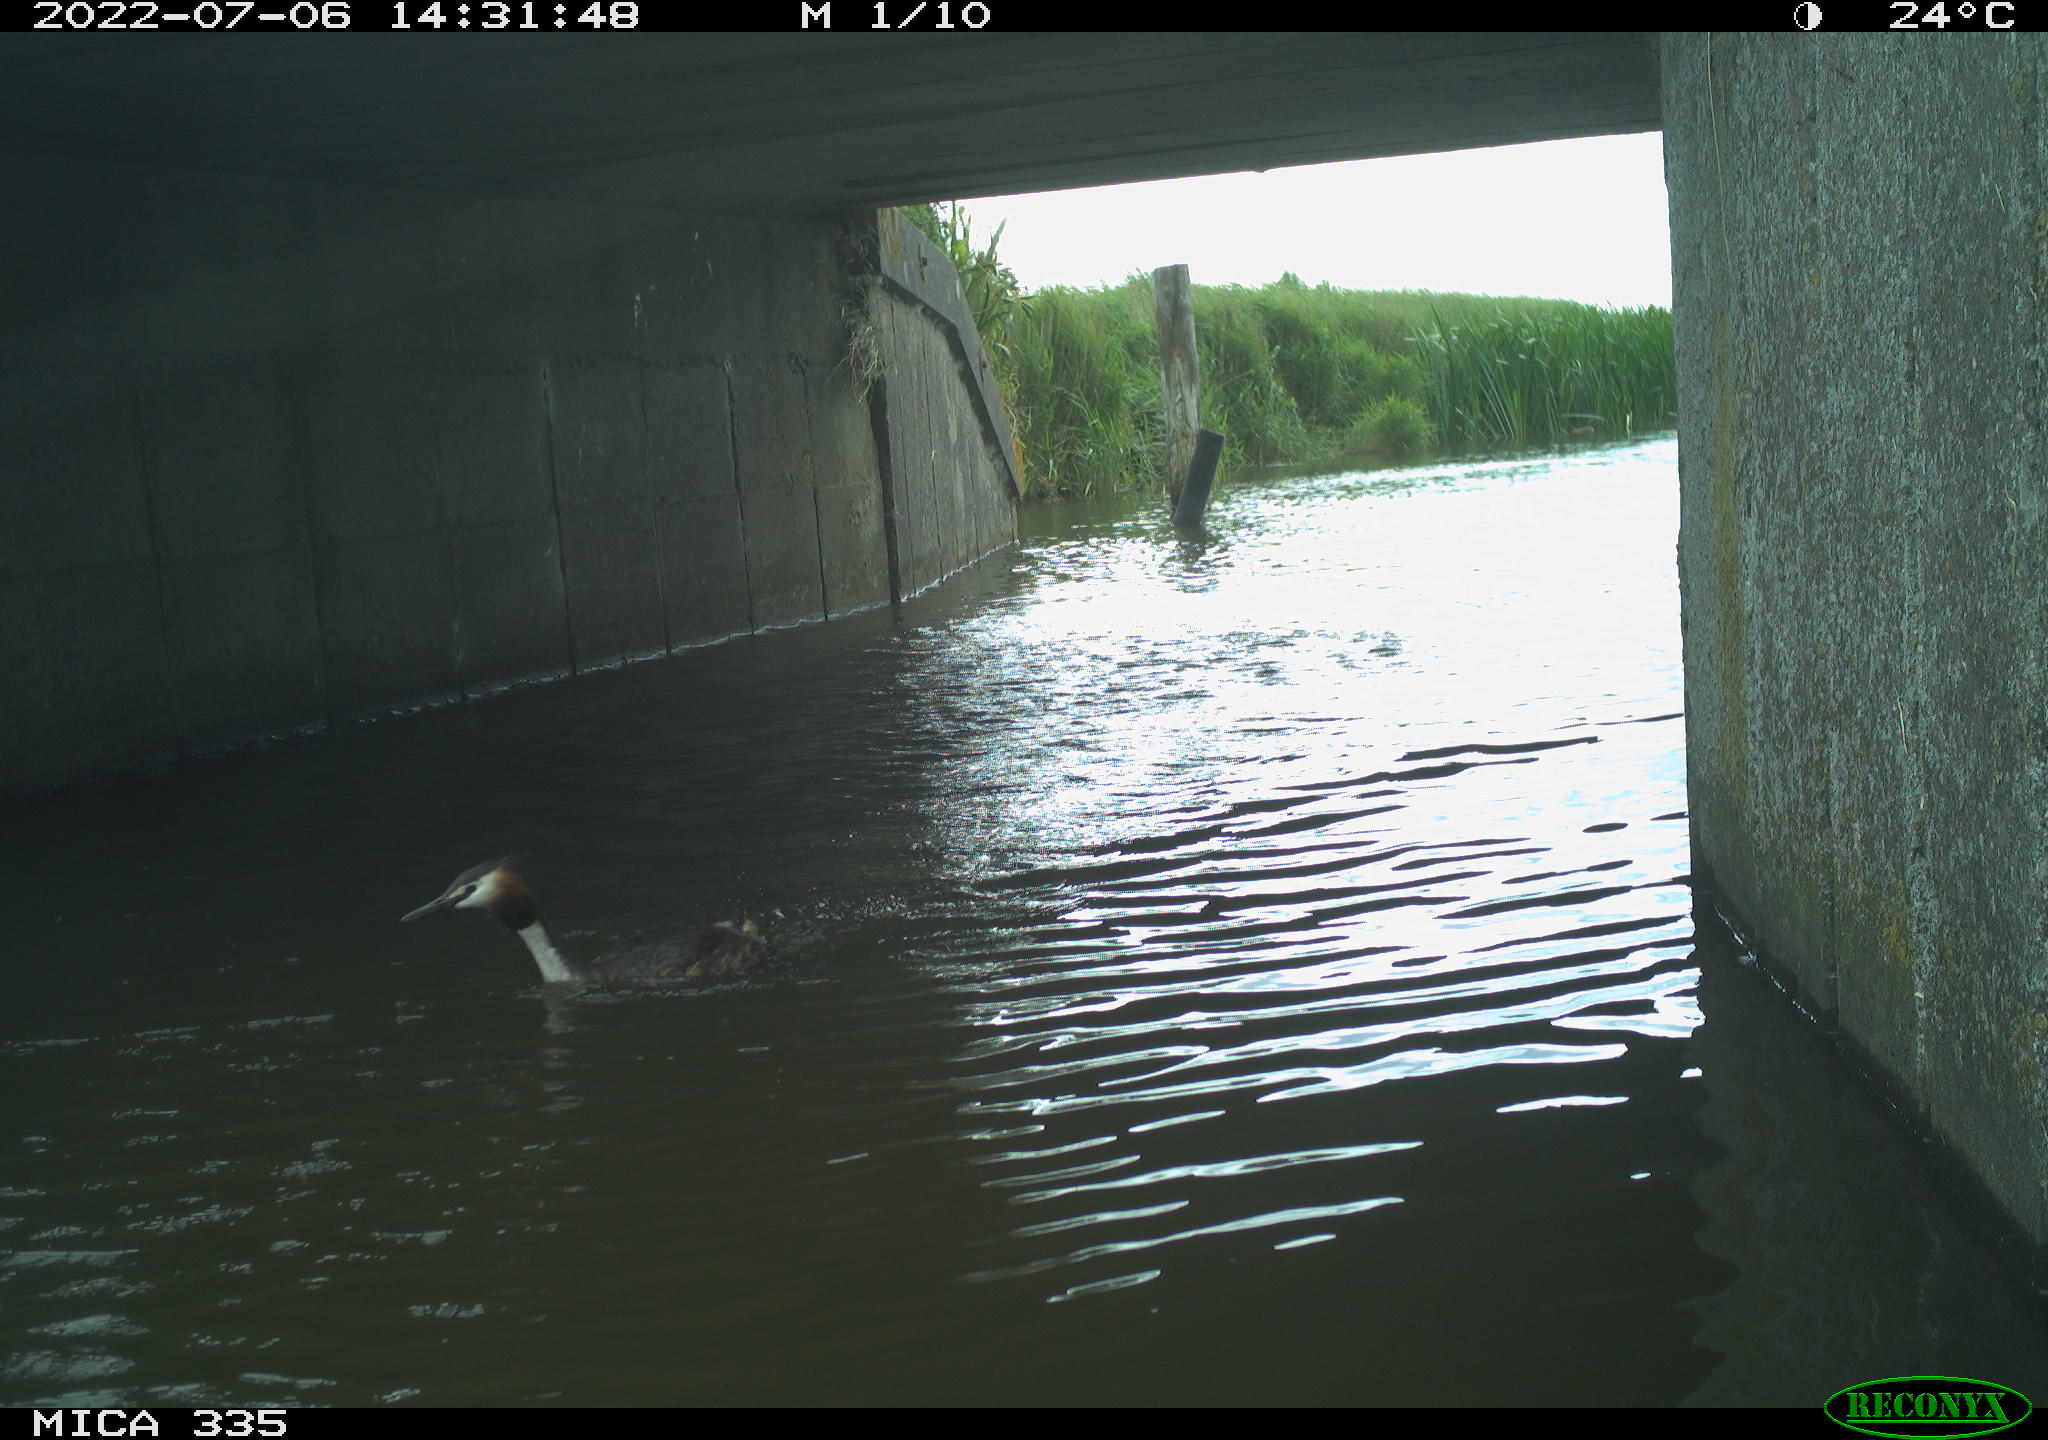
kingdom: Animalia
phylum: Chordata
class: Aves
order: Podicipediformes
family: Podicipedidae
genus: Podiceps
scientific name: Podiceps cristatus
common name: Great crested grebe
